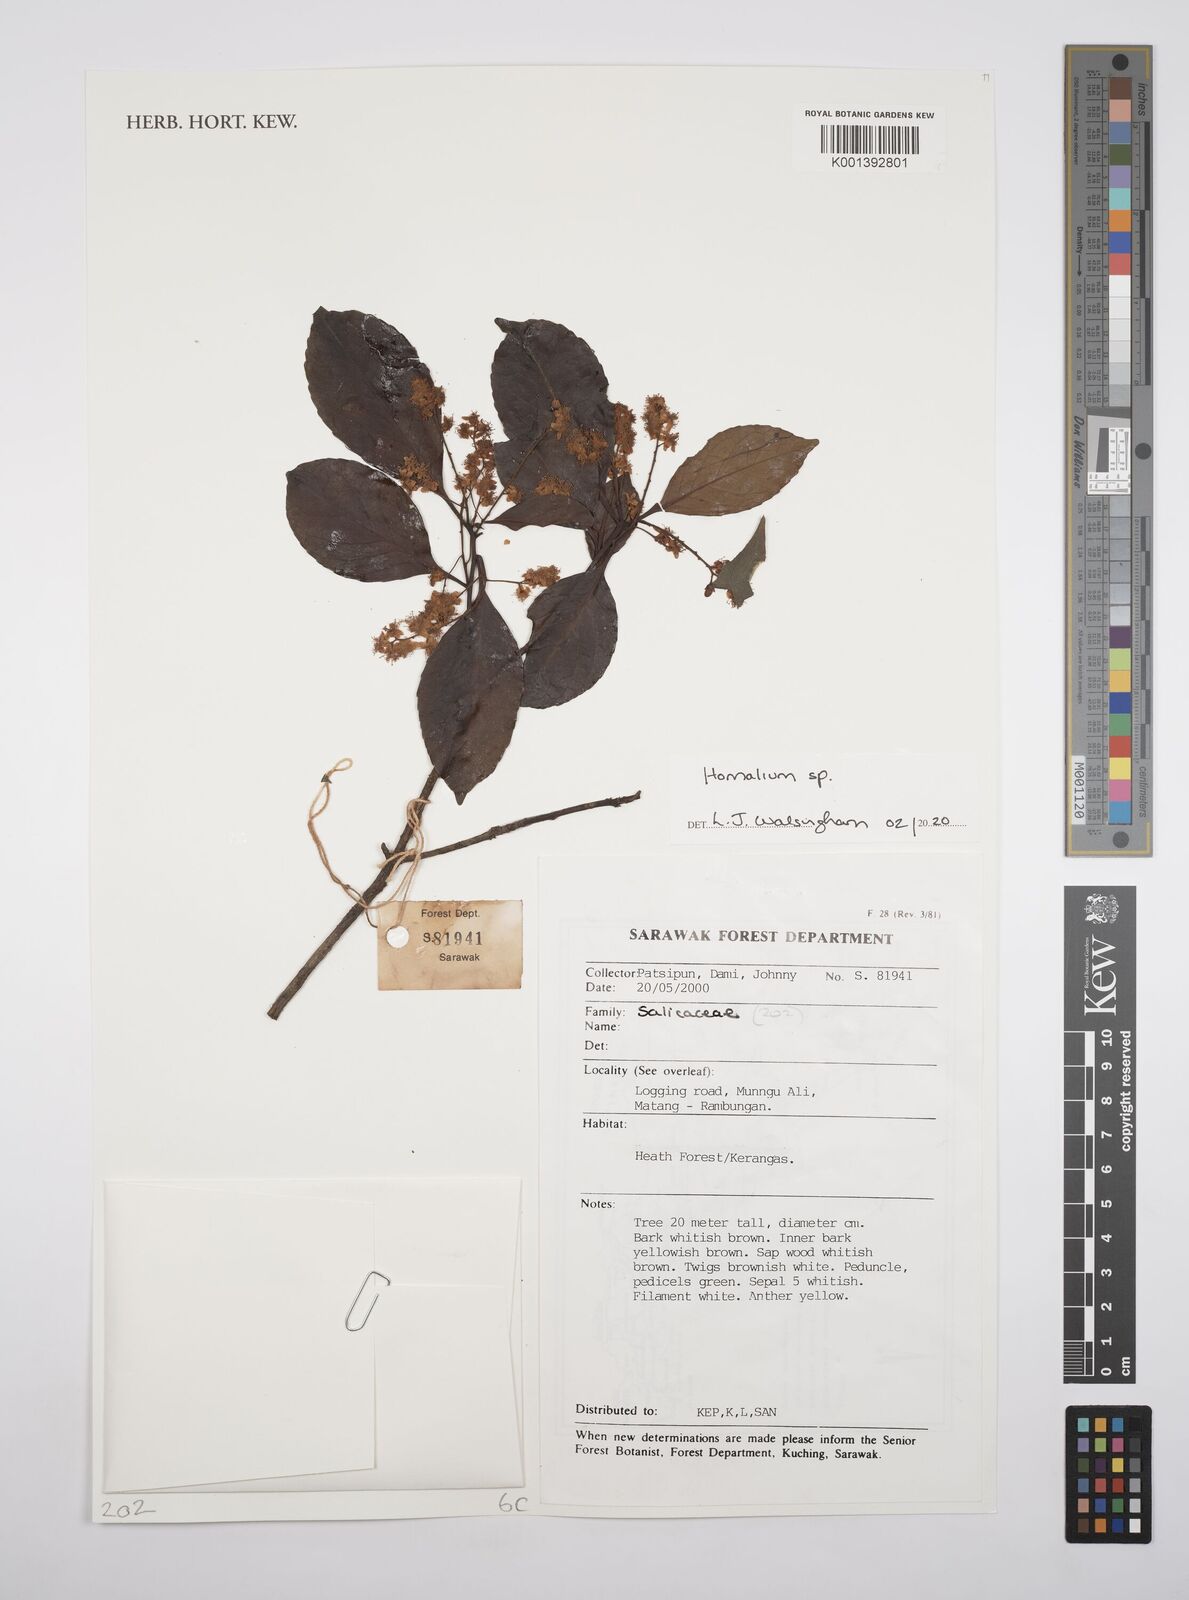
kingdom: Plantae
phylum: Tracheophyta
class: Magnoliopsida
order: Malpighiales
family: Salicaceae
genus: Homalium
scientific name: Homalium
